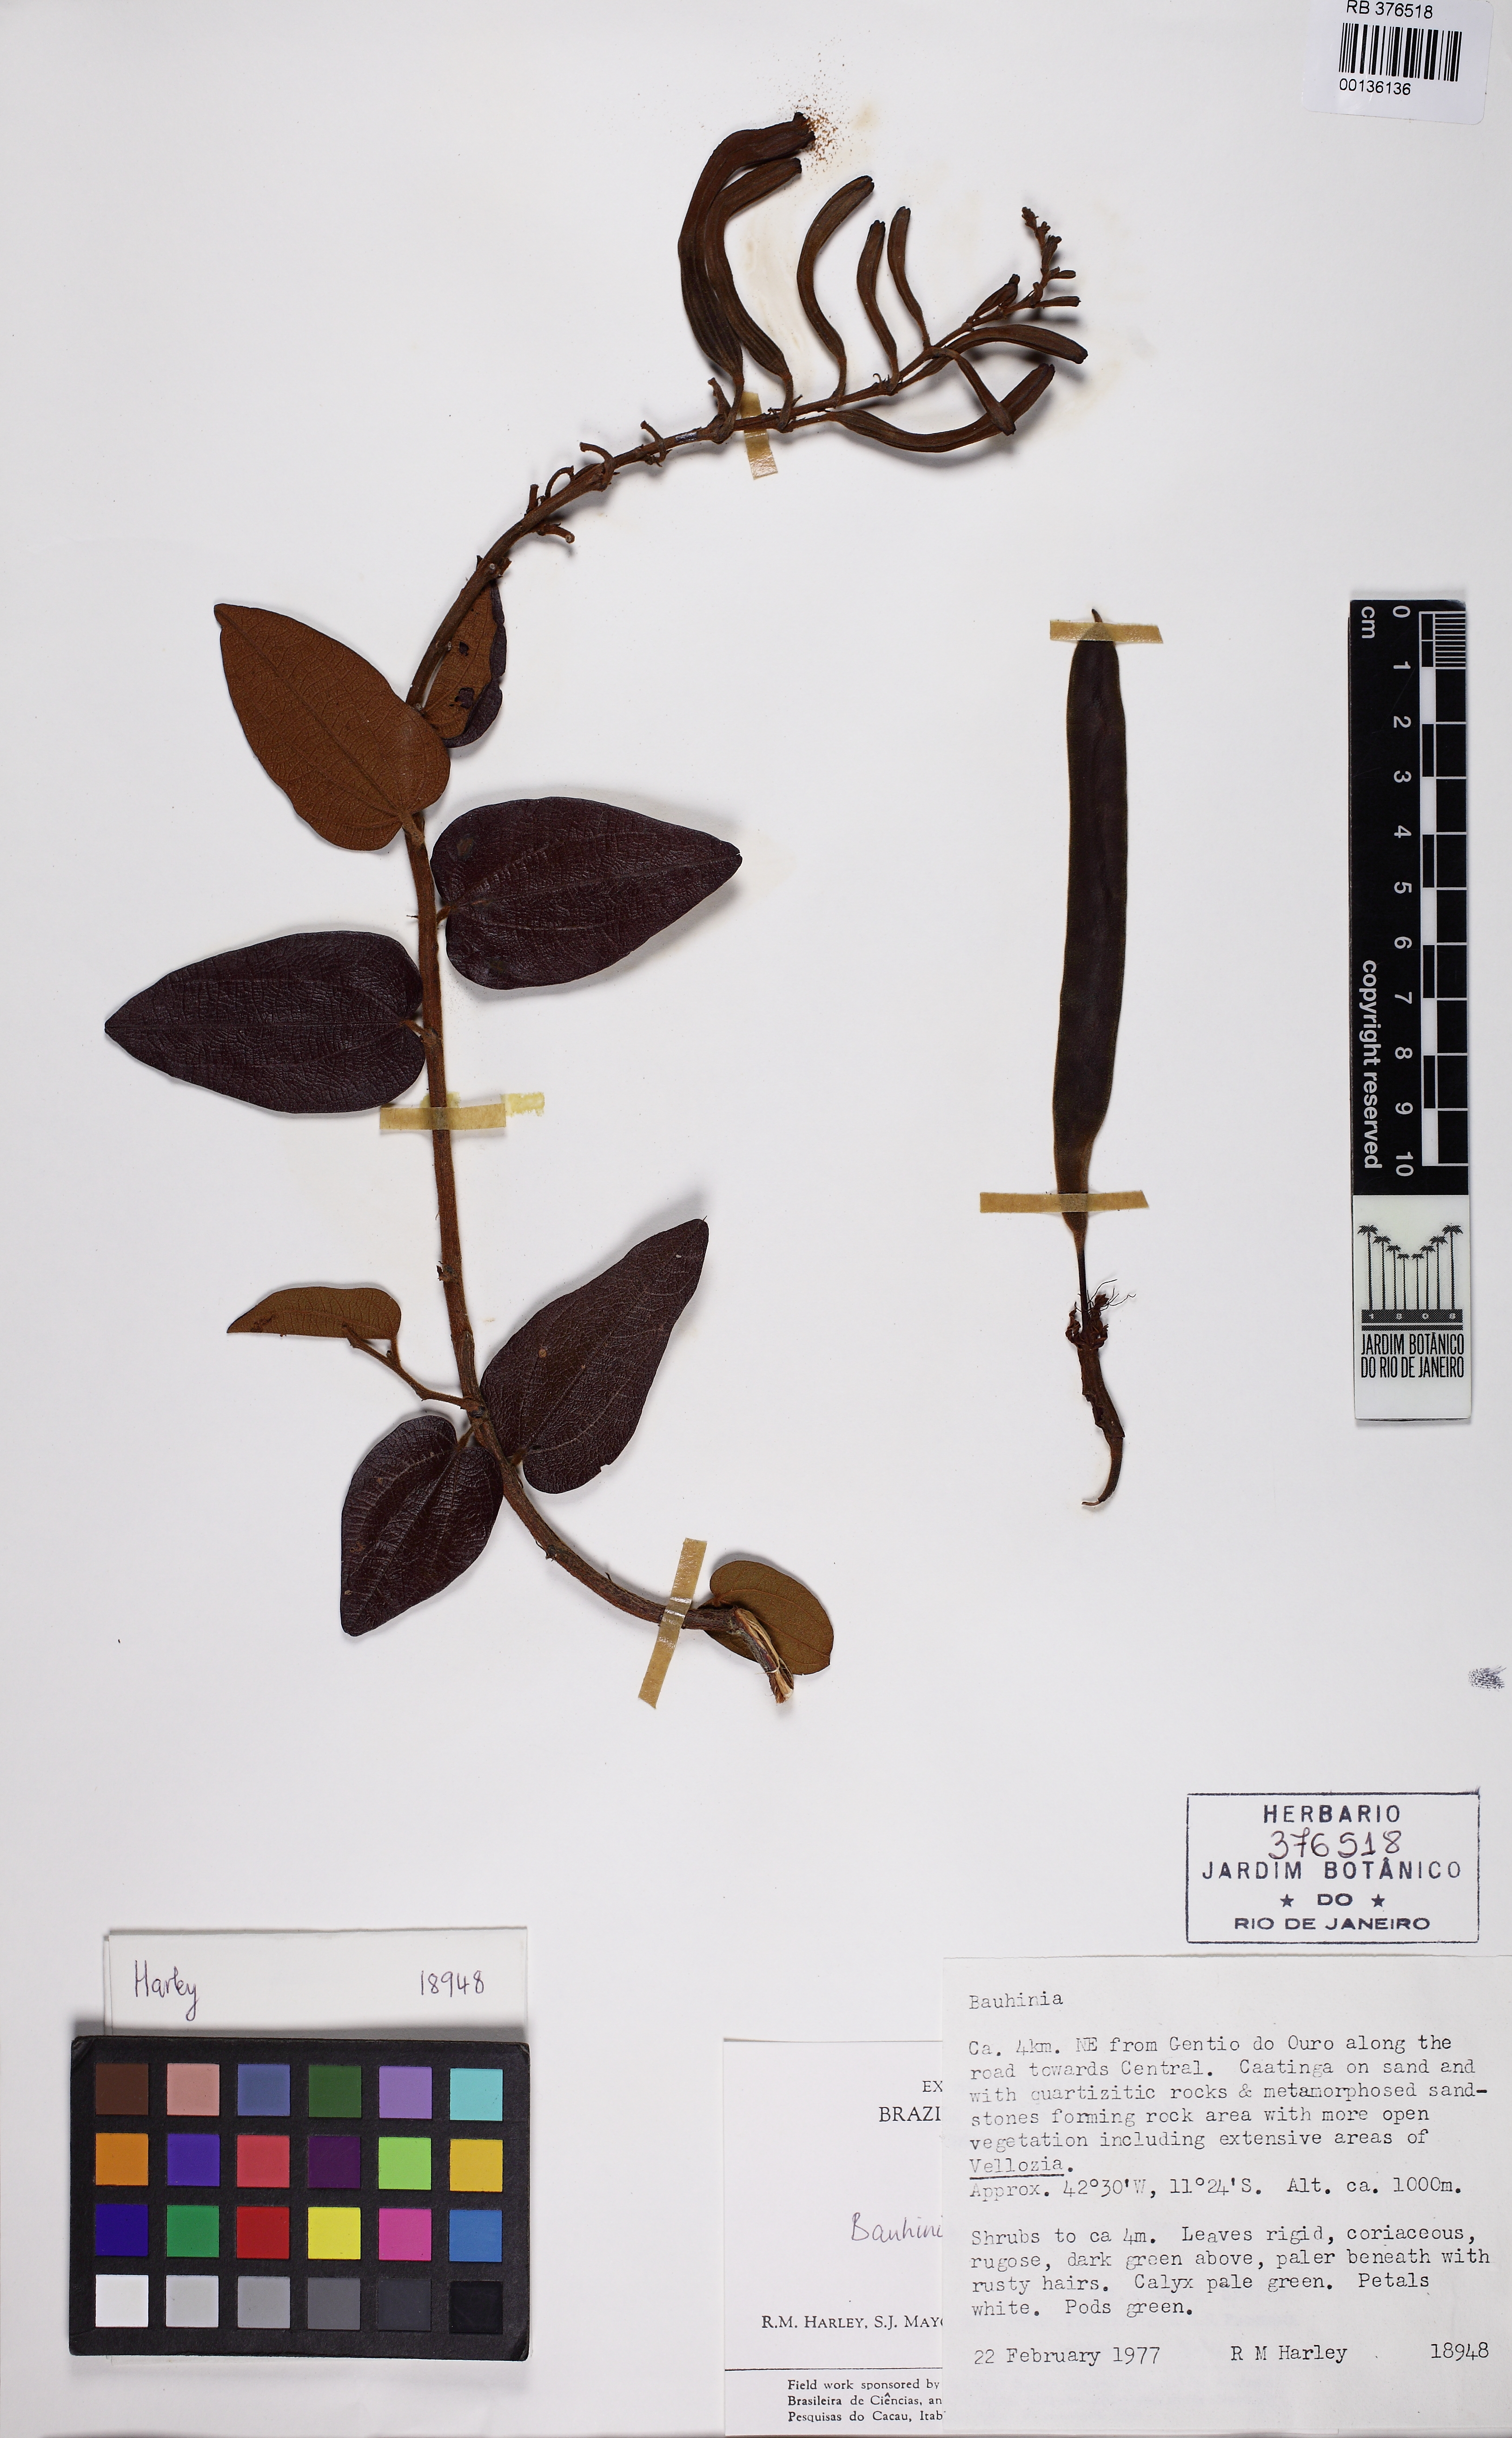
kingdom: Plantae
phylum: Tracheophyta
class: Magnoliopsida
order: Fabales
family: Fabaceae
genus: Bauhinia
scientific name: Bauhinia acuruana
